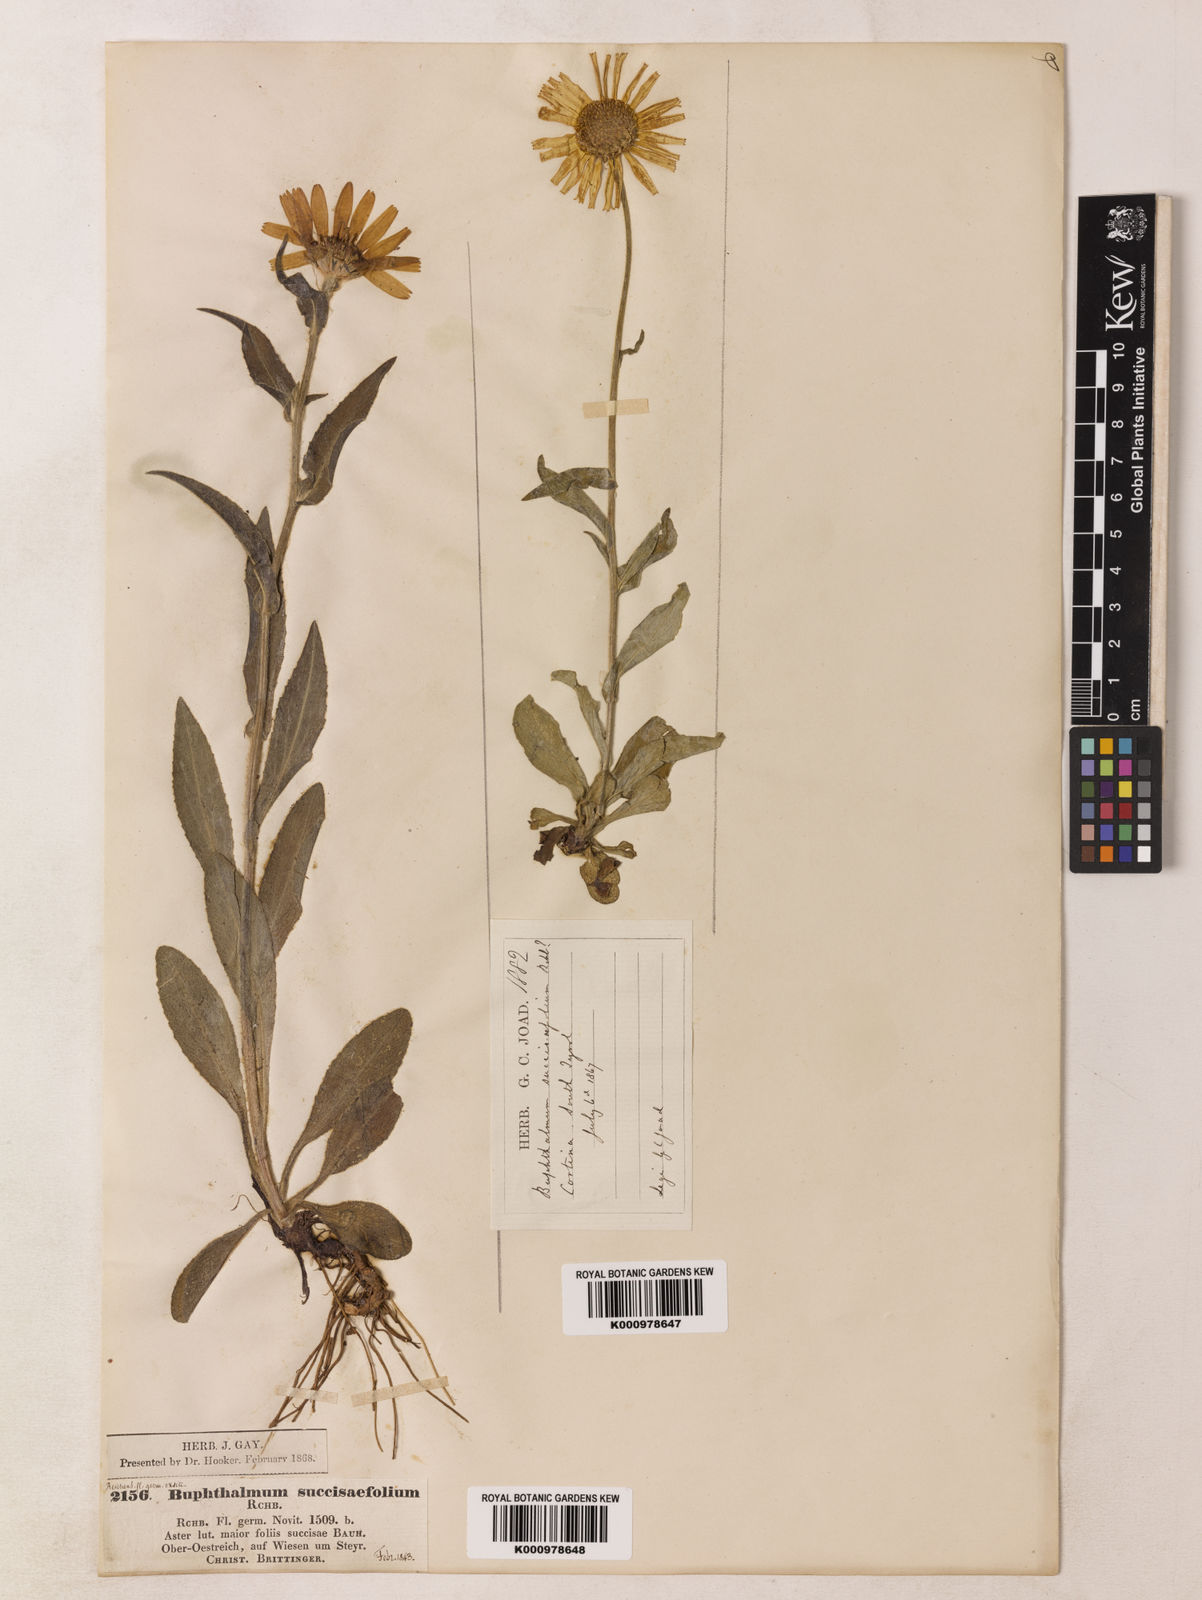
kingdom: Plantae
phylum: Tracheophyta
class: Magnoliopsida
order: Asterales
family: Asteraceae
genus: Buphthalmum
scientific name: Buphthalmum
